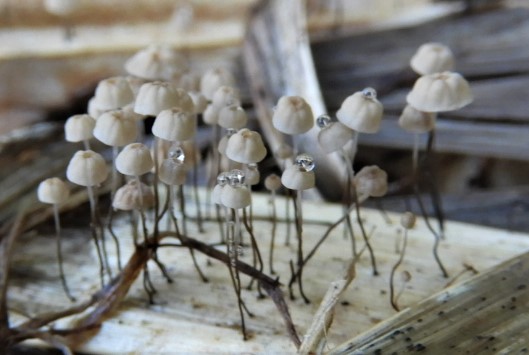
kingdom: Fungi
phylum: Basidiomycota
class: Agaricomycetes
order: Agaricales
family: Marasmiaceae
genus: Marasmius
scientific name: Marasmius limosus
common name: kær-bruskhat
